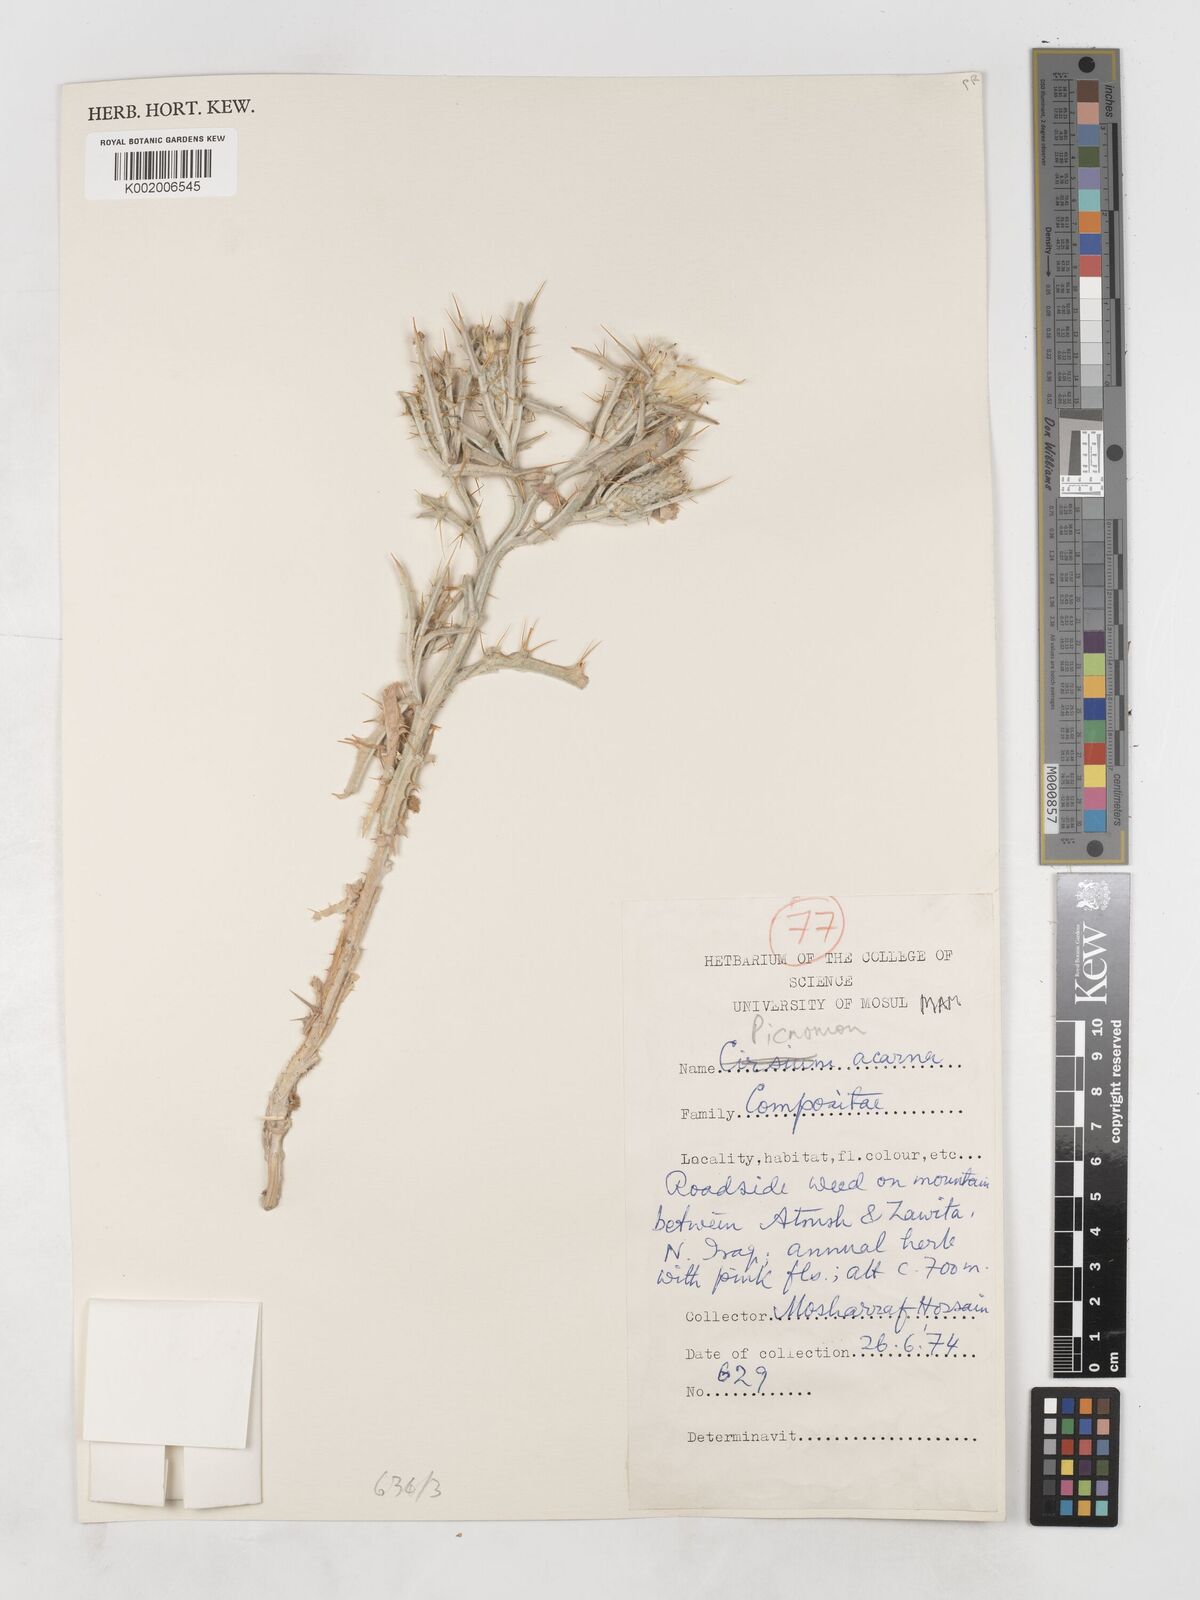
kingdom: Plantae
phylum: Tracheophyta
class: Magnoliopsida
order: Asterales
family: Asteraceae
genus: Picnomon
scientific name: Picnomon acarna
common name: Soldier thistle
